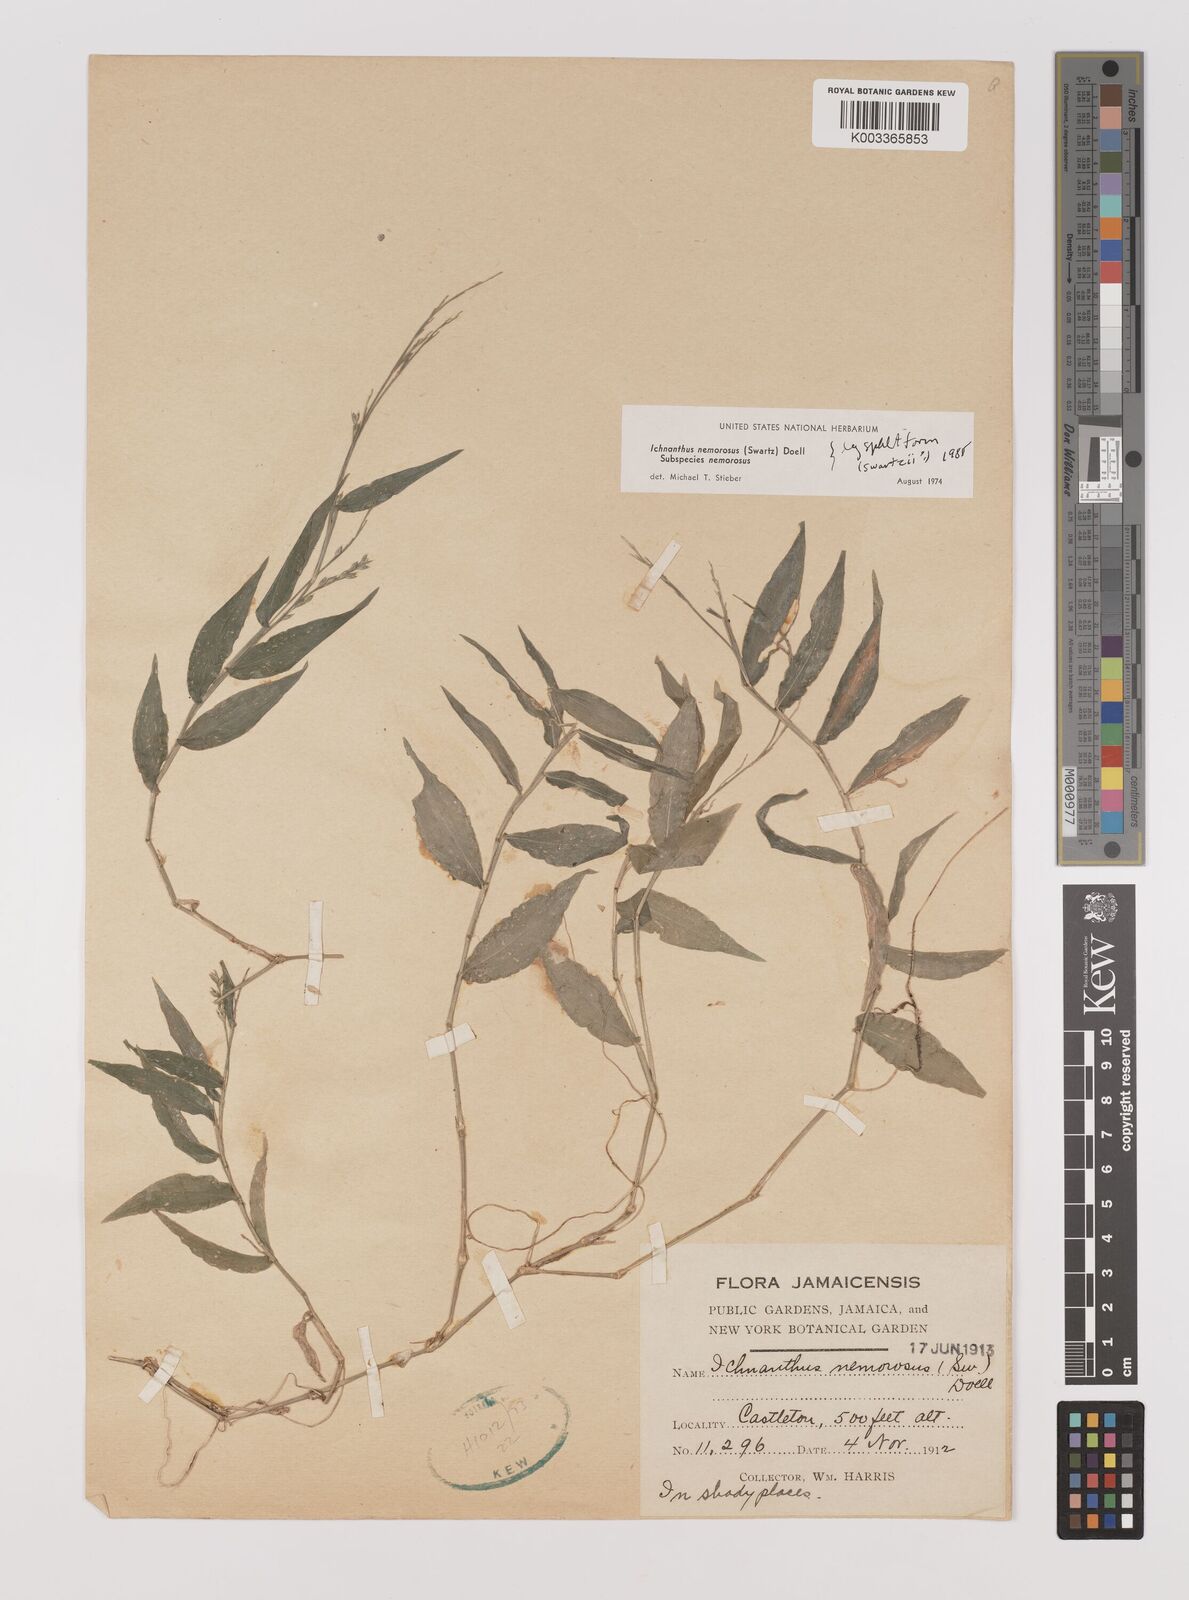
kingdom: Plantae
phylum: Tracheophyta
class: Liliopsida
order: Poales
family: Poaceae
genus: Ichnanthus
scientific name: Ichnanthus nemorosus
